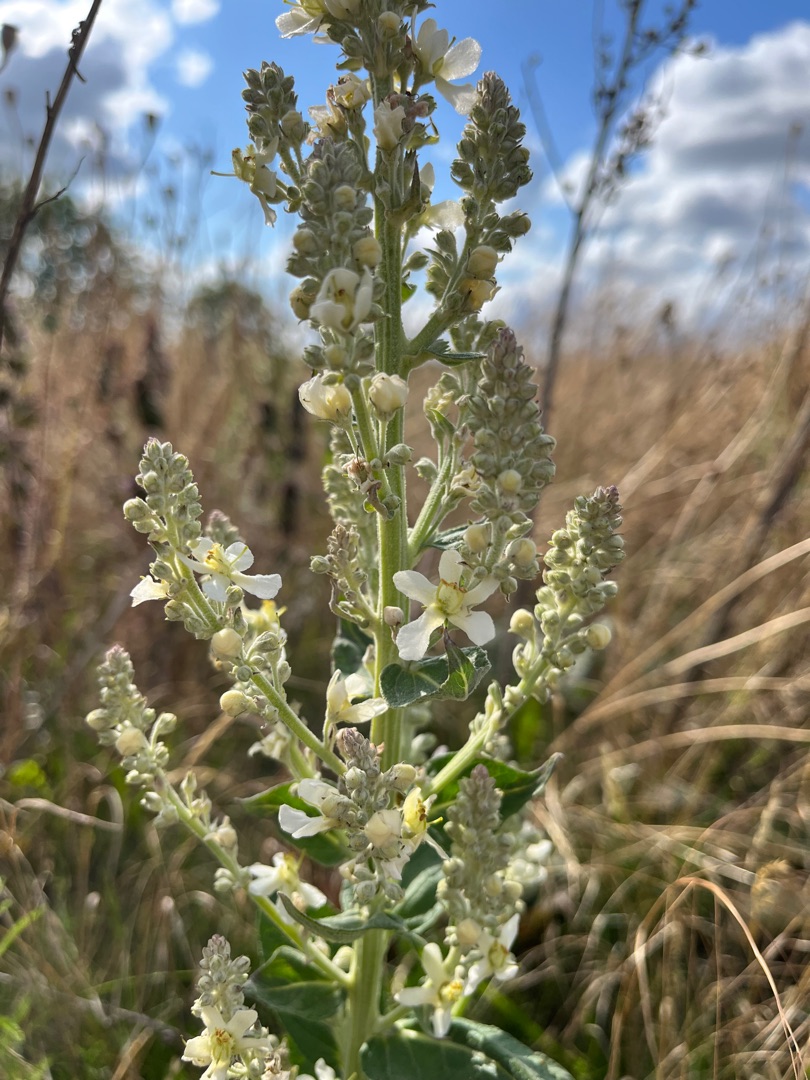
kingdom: Plantae
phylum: Tracheophyta
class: Magnoliopsida
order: Lamiales
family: Scrophulariaceae
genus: Verbascum
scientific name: Verbascum lychnitis
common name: Bleg kongelys
